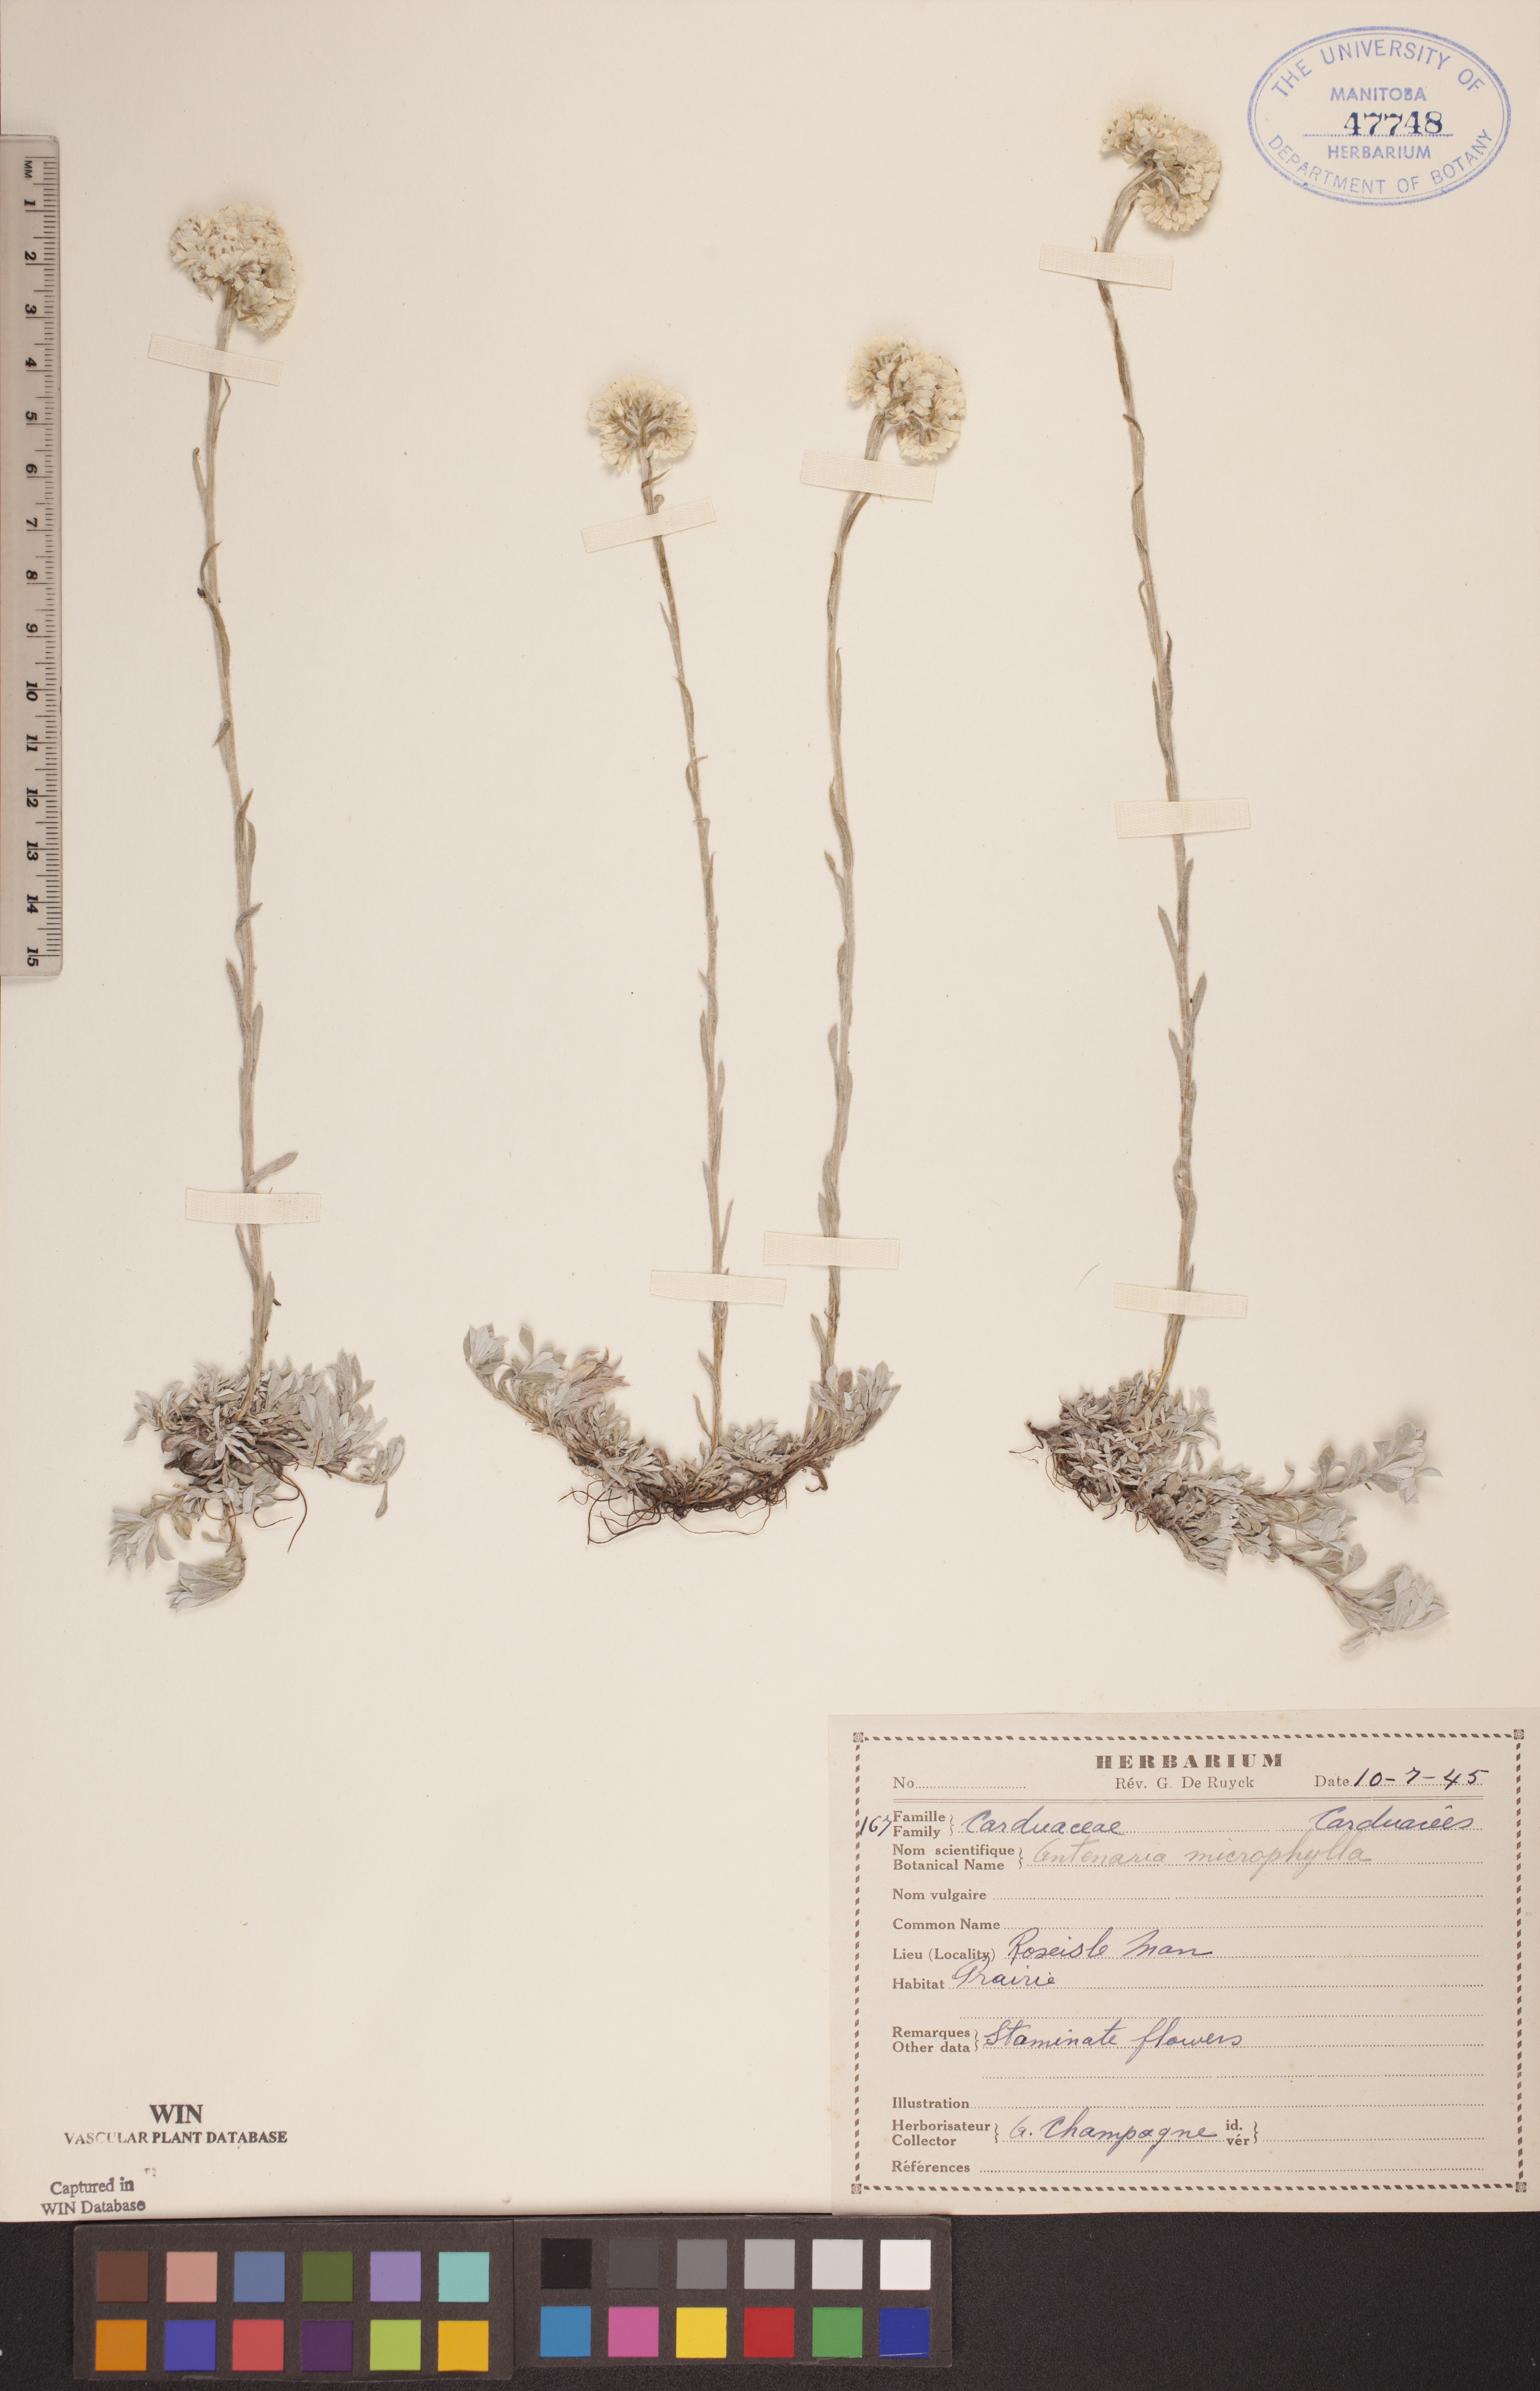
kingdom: Plantae
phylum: Tracheophyta
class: Magnoliopsida
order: Asterales
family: Asteraceae
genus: Antennaria
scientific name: Antennaria microphylla
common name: Littleleaf pussytoes
